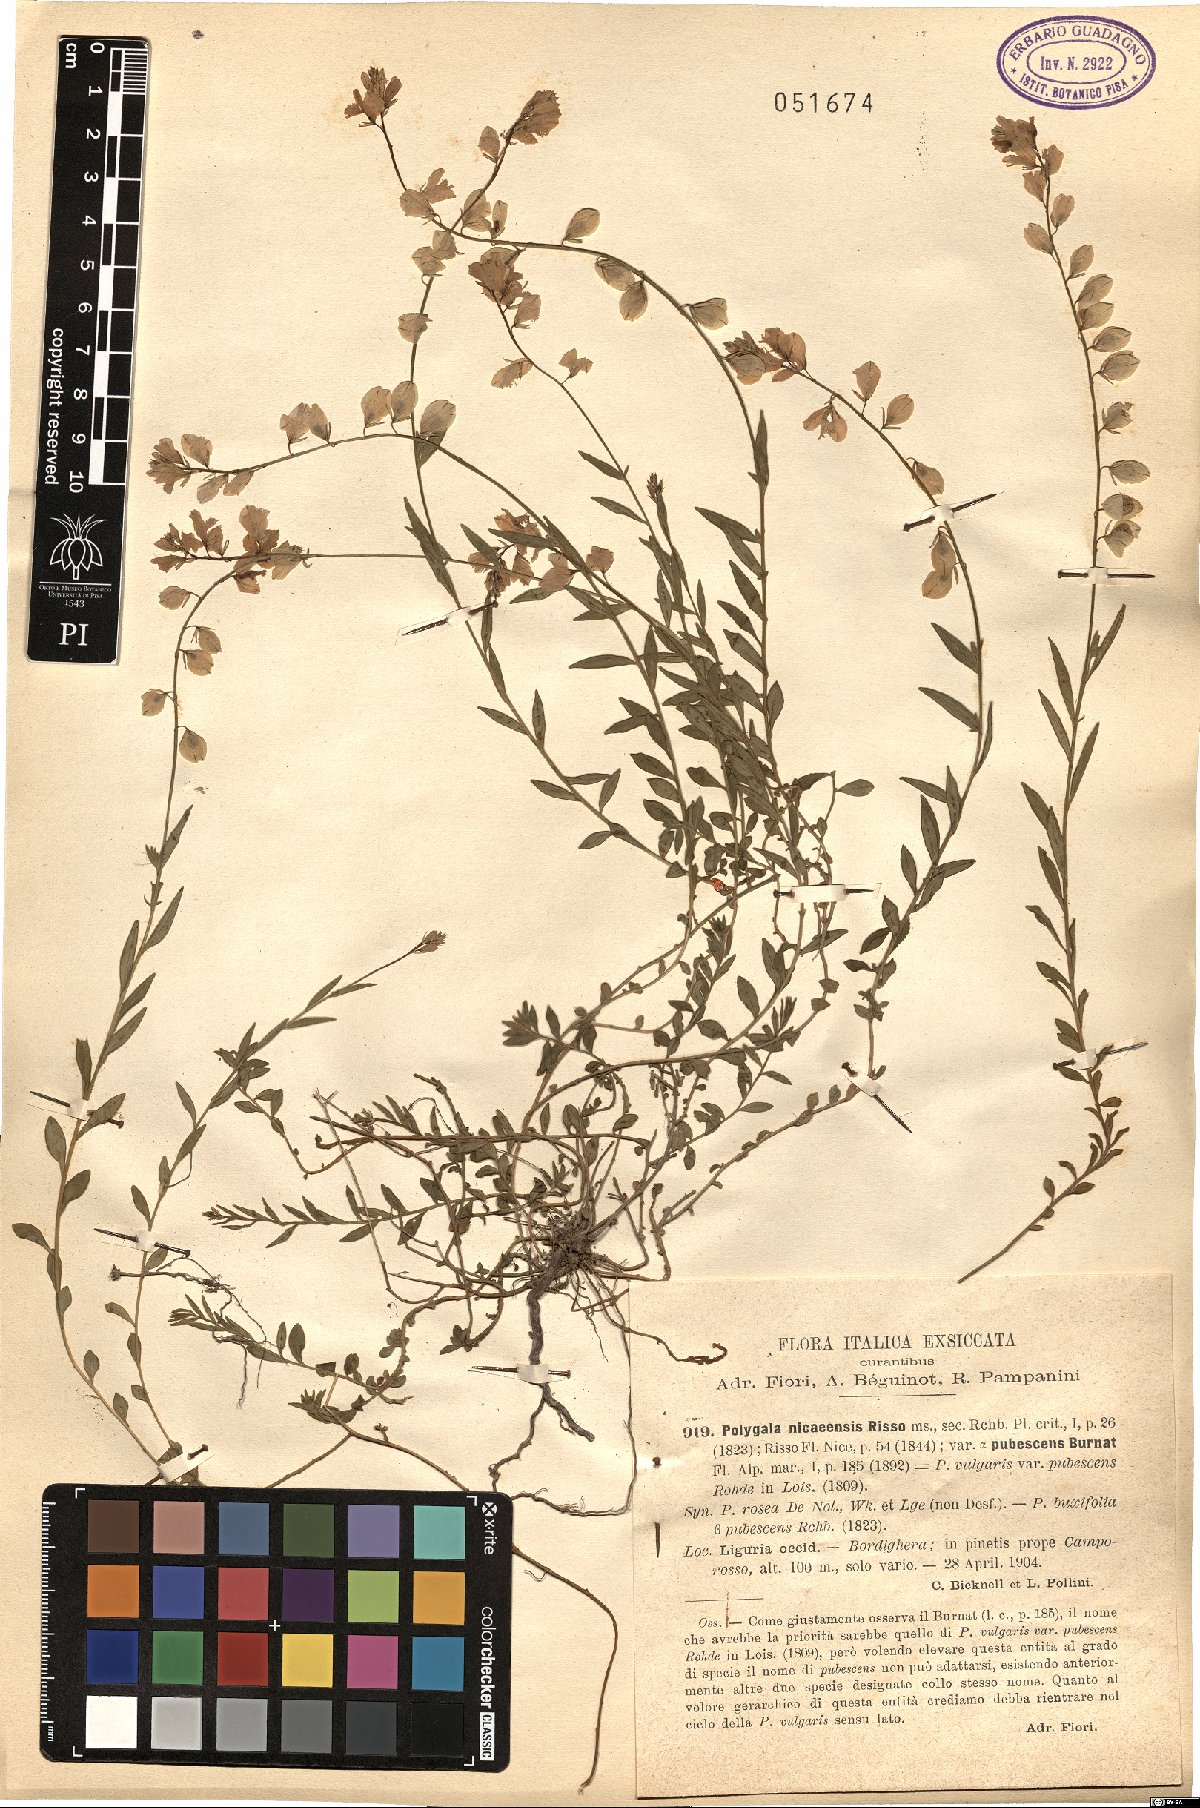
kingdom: Plantae
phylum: Tracheophyta
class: Magnoliopsida
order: Fabales
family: Polygalaceae
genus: Polygala
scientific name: Polygala nicaeensis
